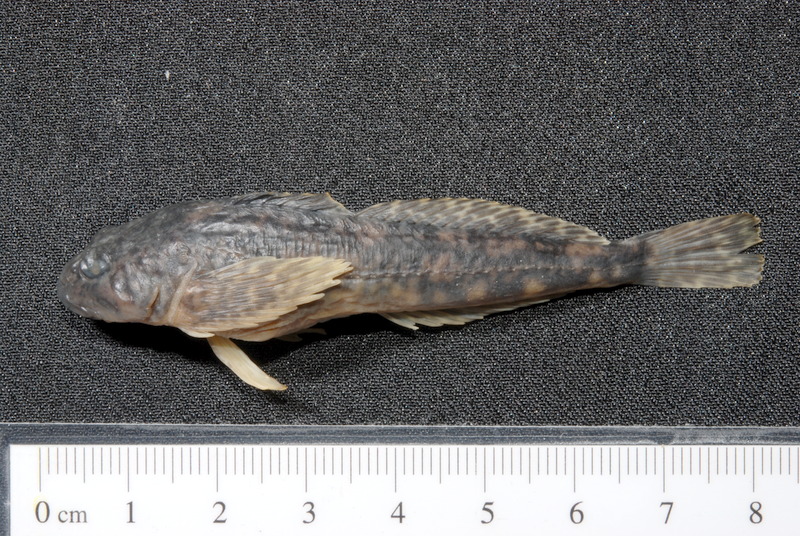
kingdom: Animalia
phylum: Chordata
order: Scorpaeniformes
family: Cottidae
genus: Cottus
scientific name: Cottus gobio
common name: Bullhead
